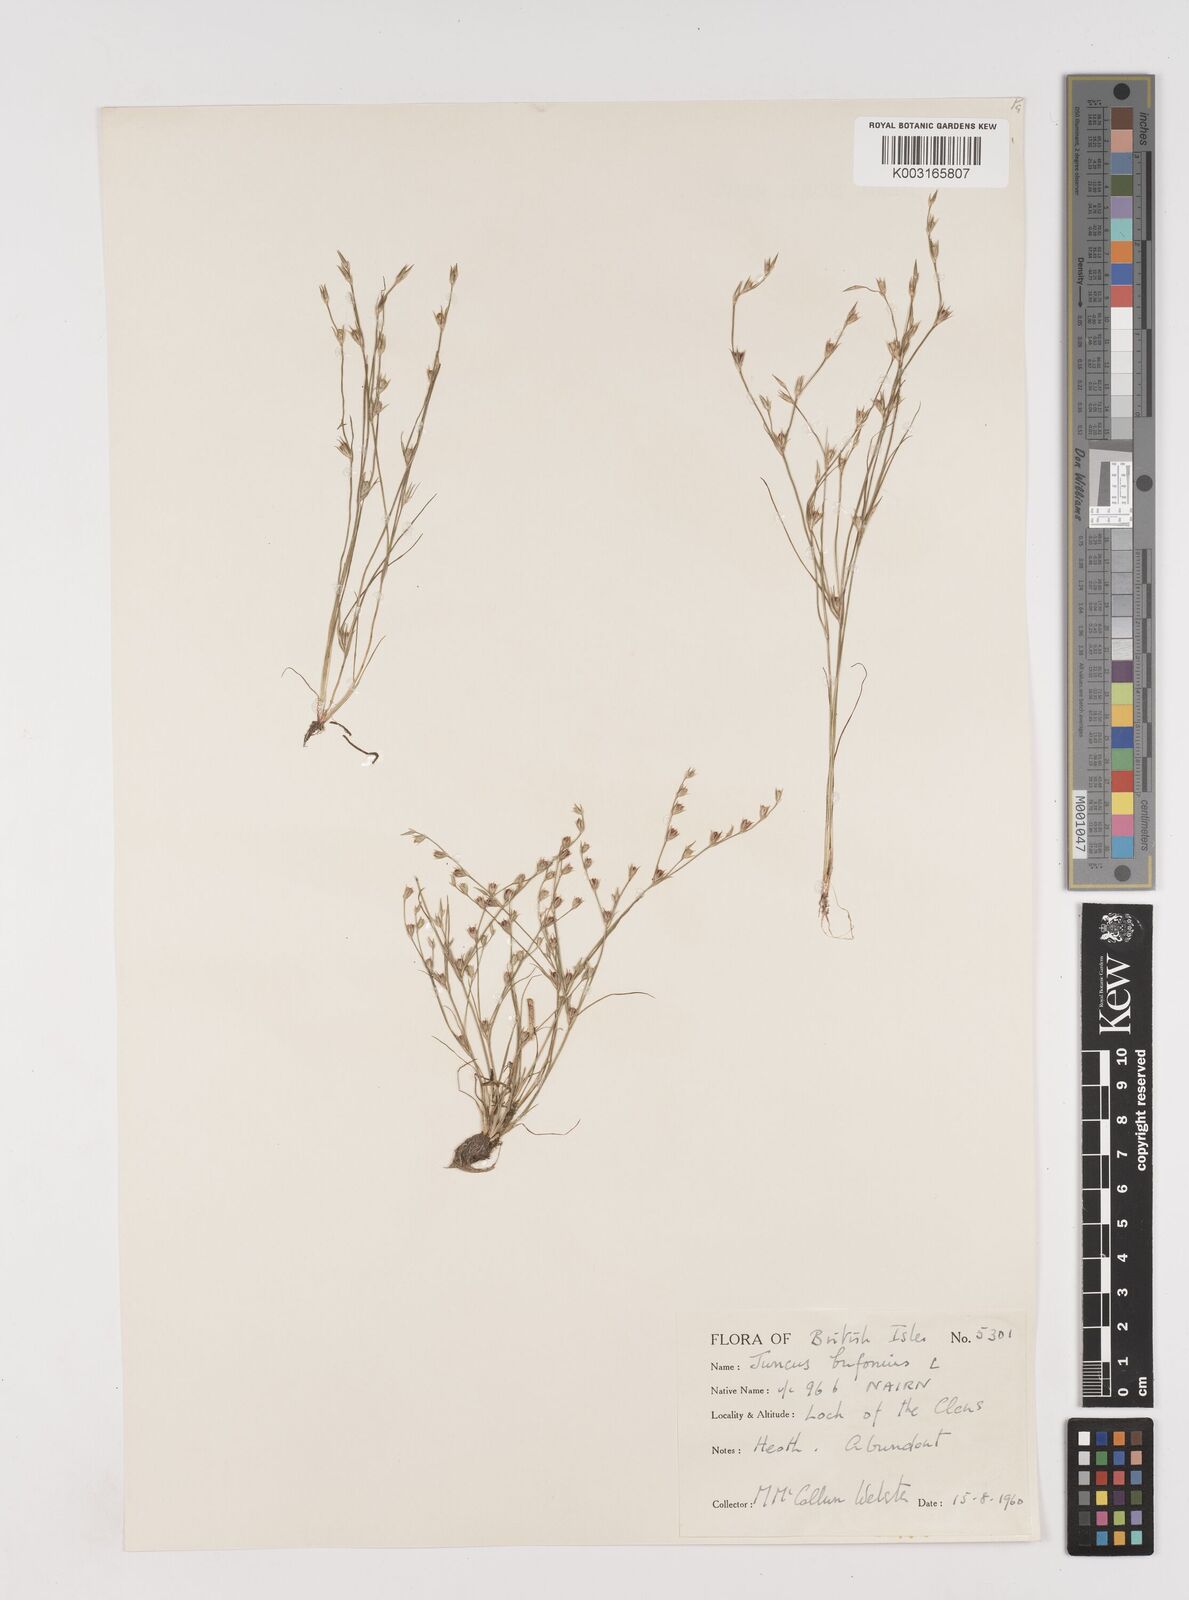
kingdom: Plantae
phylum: Tracheophyta
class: Liliopsida
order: Poales
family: Juncaceae
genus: Juncus
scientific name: Juncus bufonius
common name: Toad rush
